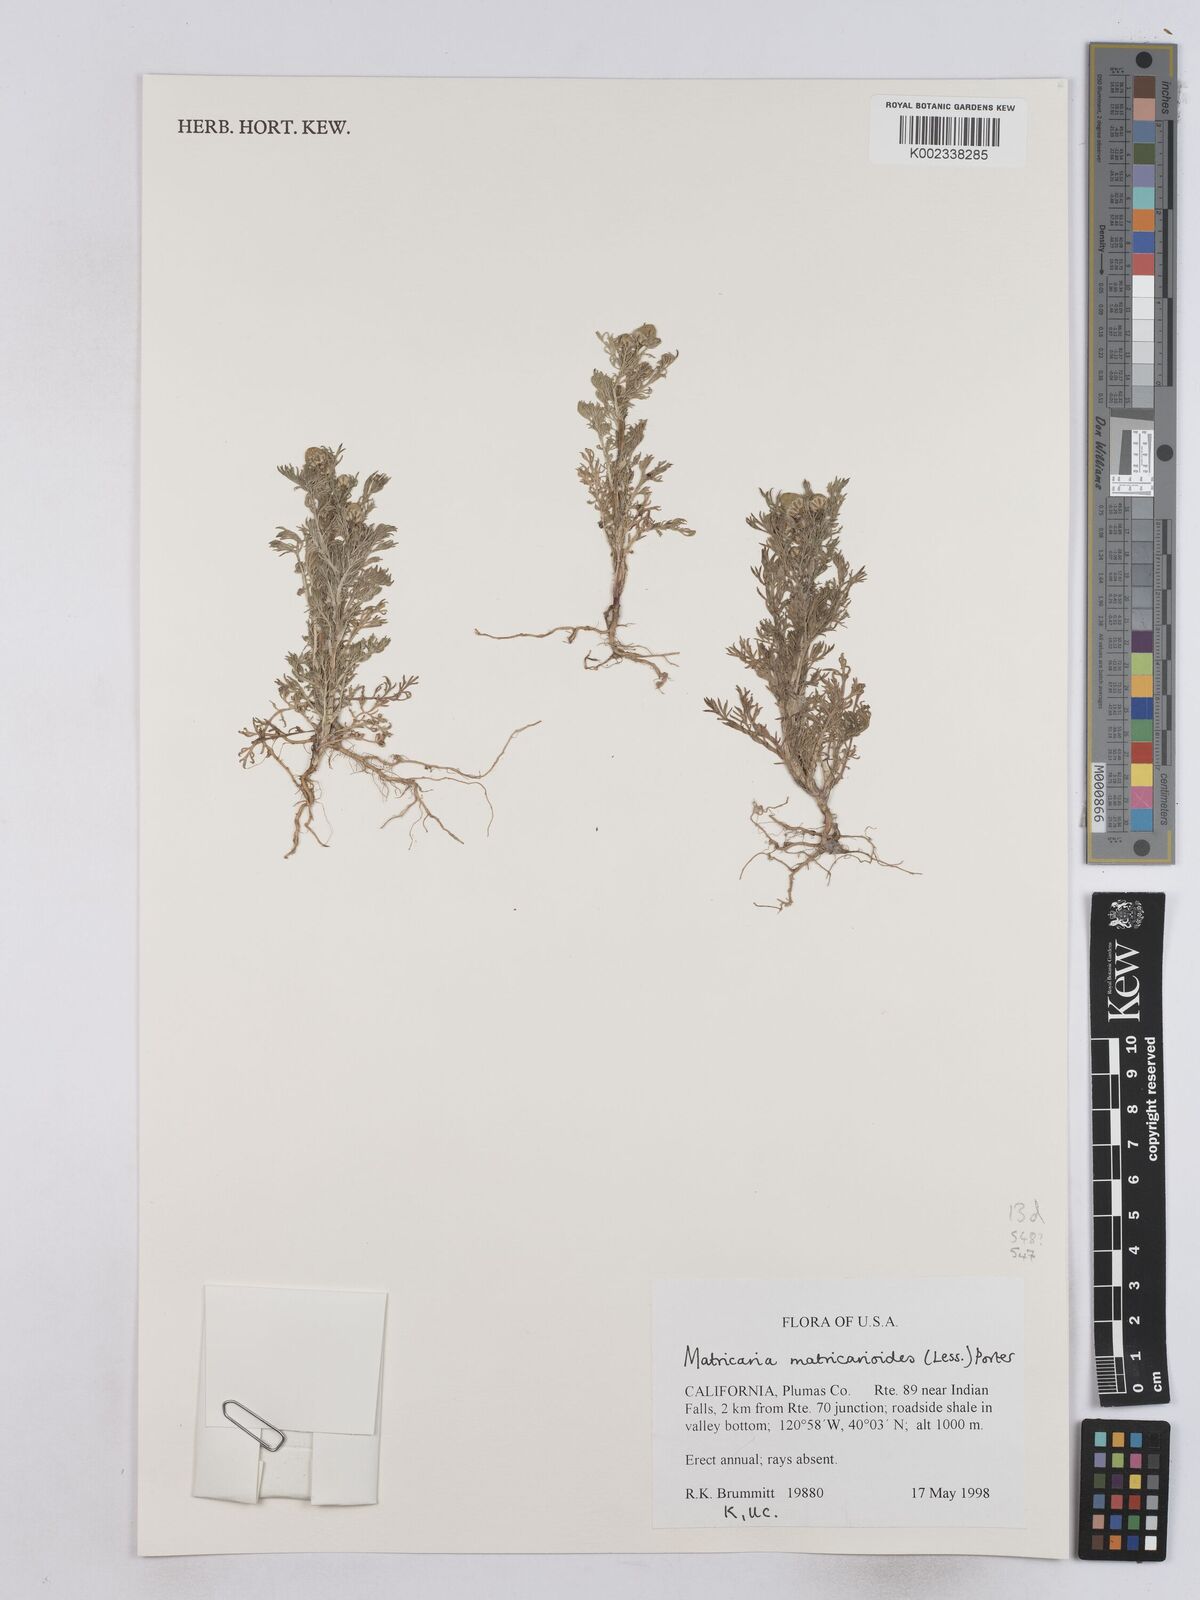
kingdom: Plantae
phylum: Tracheophyta
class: Magnoliopsida
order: Asterales
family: Asteraceae
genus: Matricaria
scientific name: Matricaria discoidea
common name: Disc mayweed
